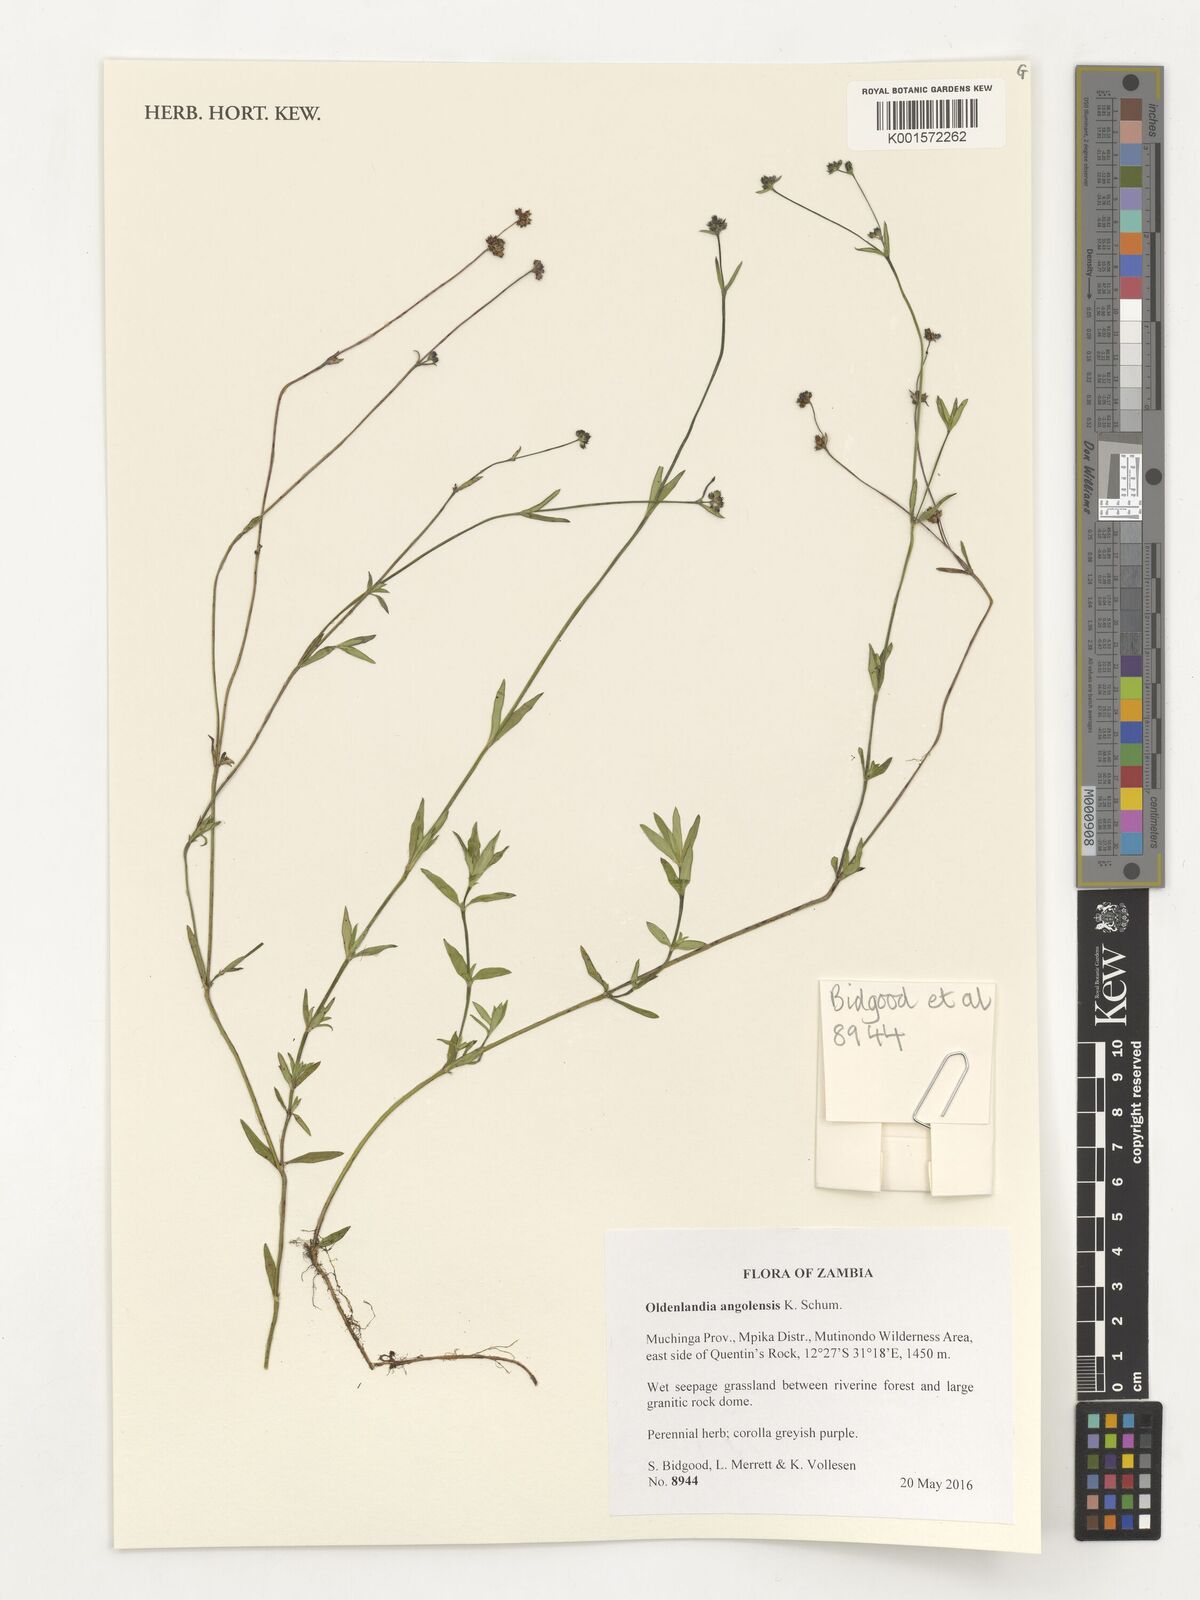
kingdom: Plantae
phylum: Tracheophyta
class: Magnoliopsida
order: Gentianales
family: Rubiaceae
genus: Edrastima
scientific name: Edrastima angolensis
